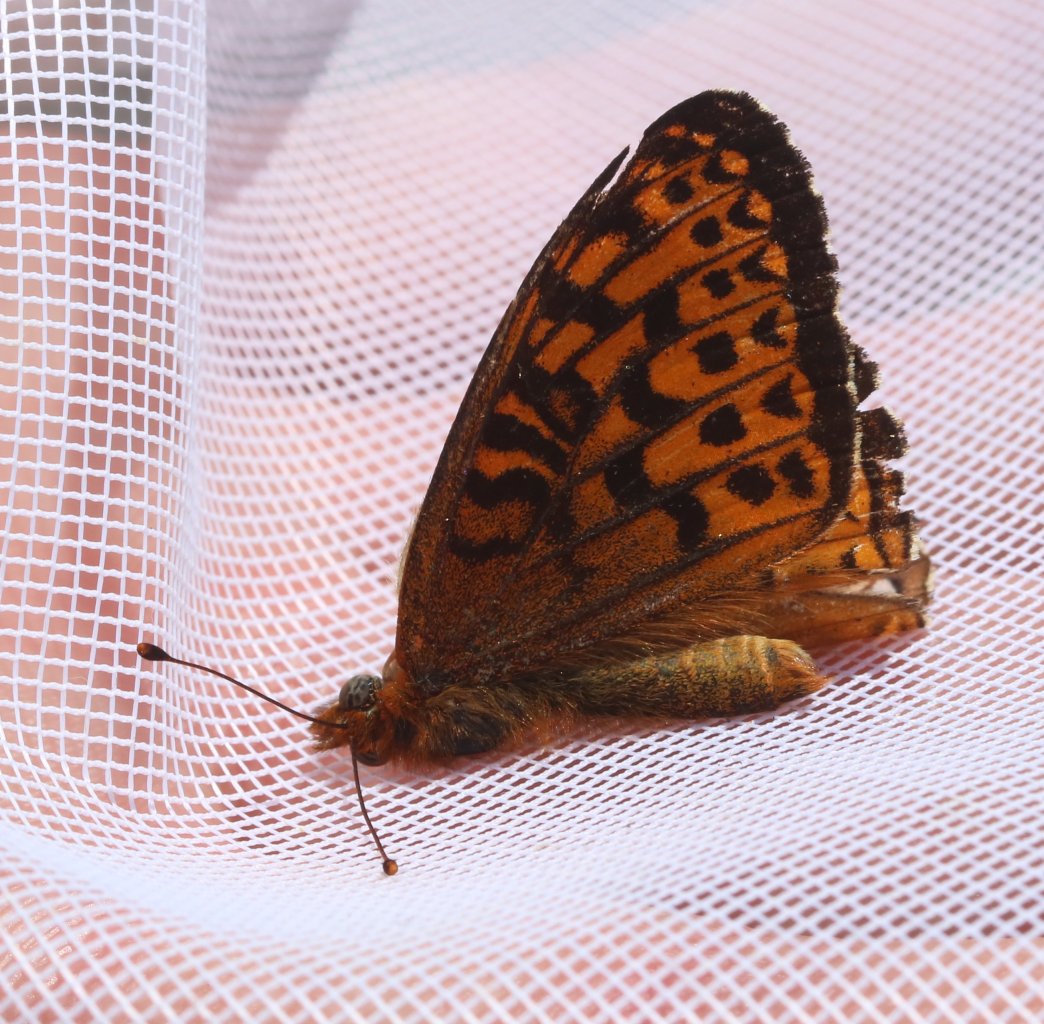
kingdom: Animalia
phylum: Arthropoda
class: Insecta
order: Lepidoptera
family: Nymphalidae
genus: Speyeria
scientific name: Speyeria atlantis
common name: Atlantis Fritillary
